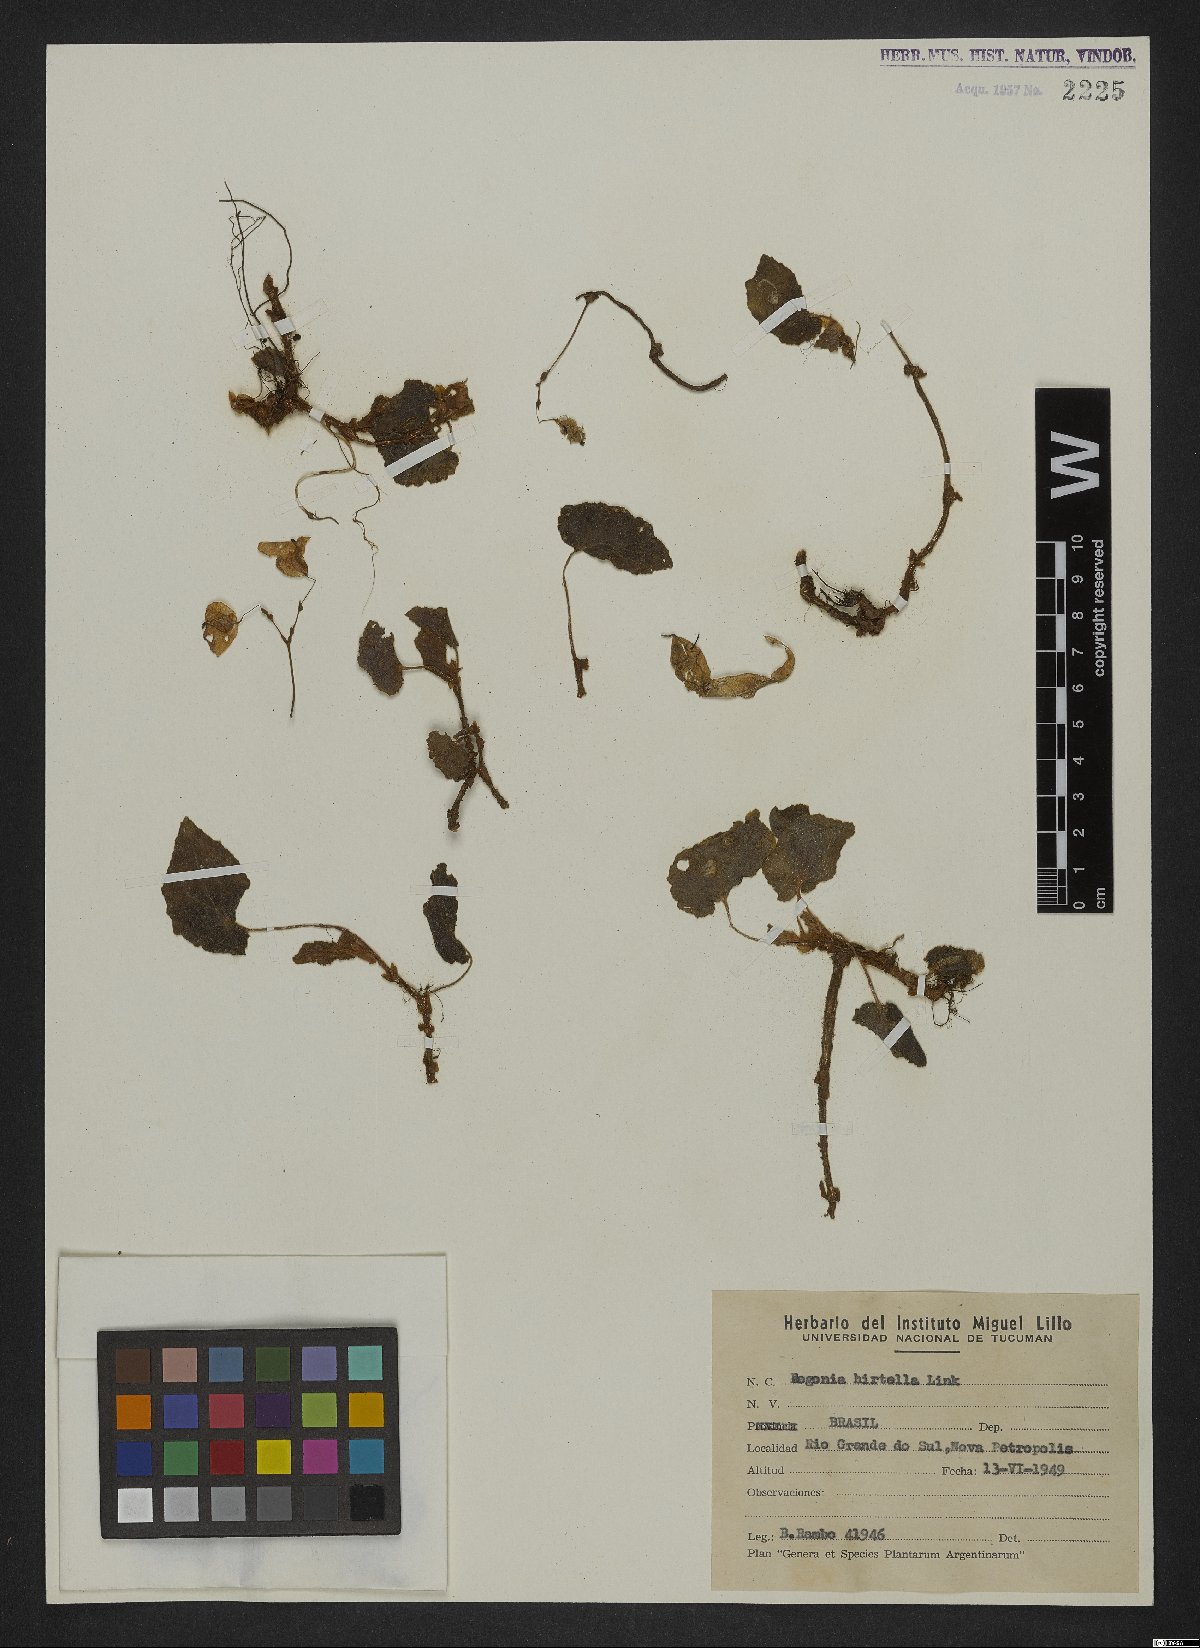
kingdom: Plantae
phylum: Tracheophyta
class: Magnoliopsida
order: Cucurbitales
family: Begoniaceae
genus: Begonia
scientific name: Begonia hirtella
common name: Brazilian begonia
